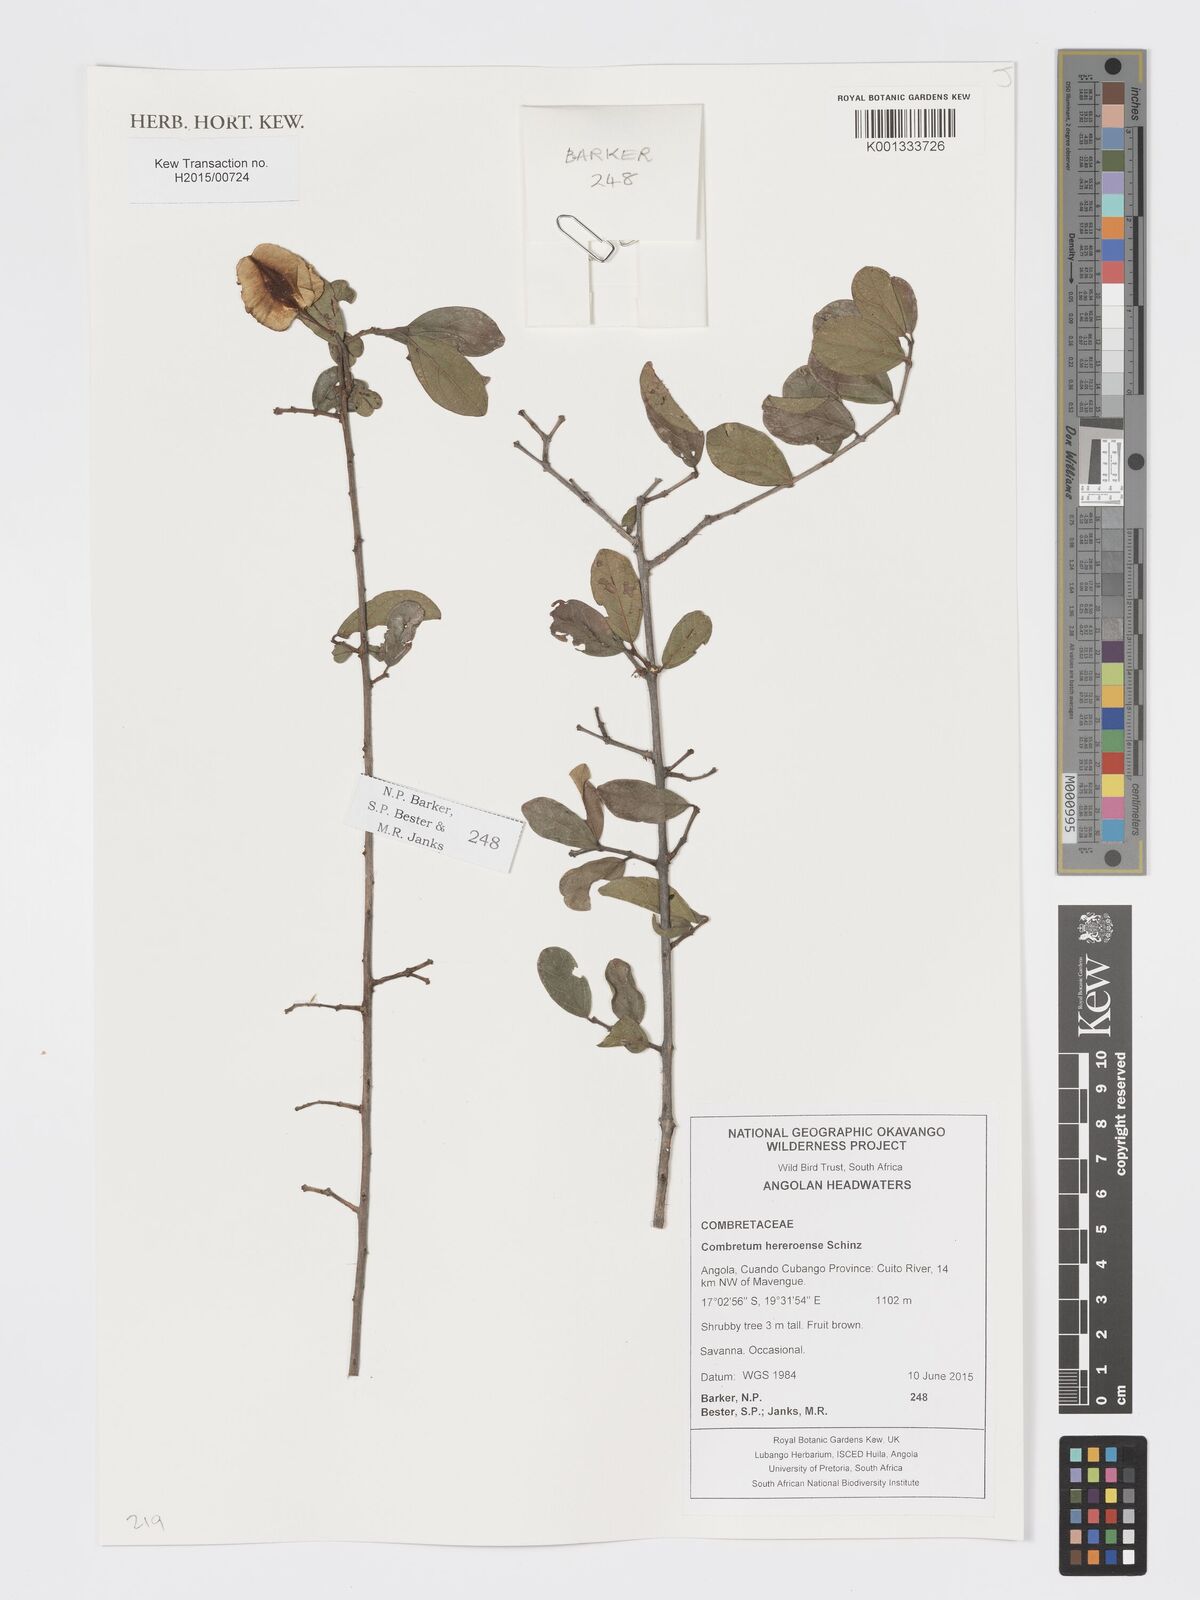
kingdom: Plantae
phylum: Tracheophyta
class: Magnoliopsida
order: Myrtales
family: Combretaceae
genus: Combretum
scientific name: Combretum hereroense
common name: Russet bushwillow
